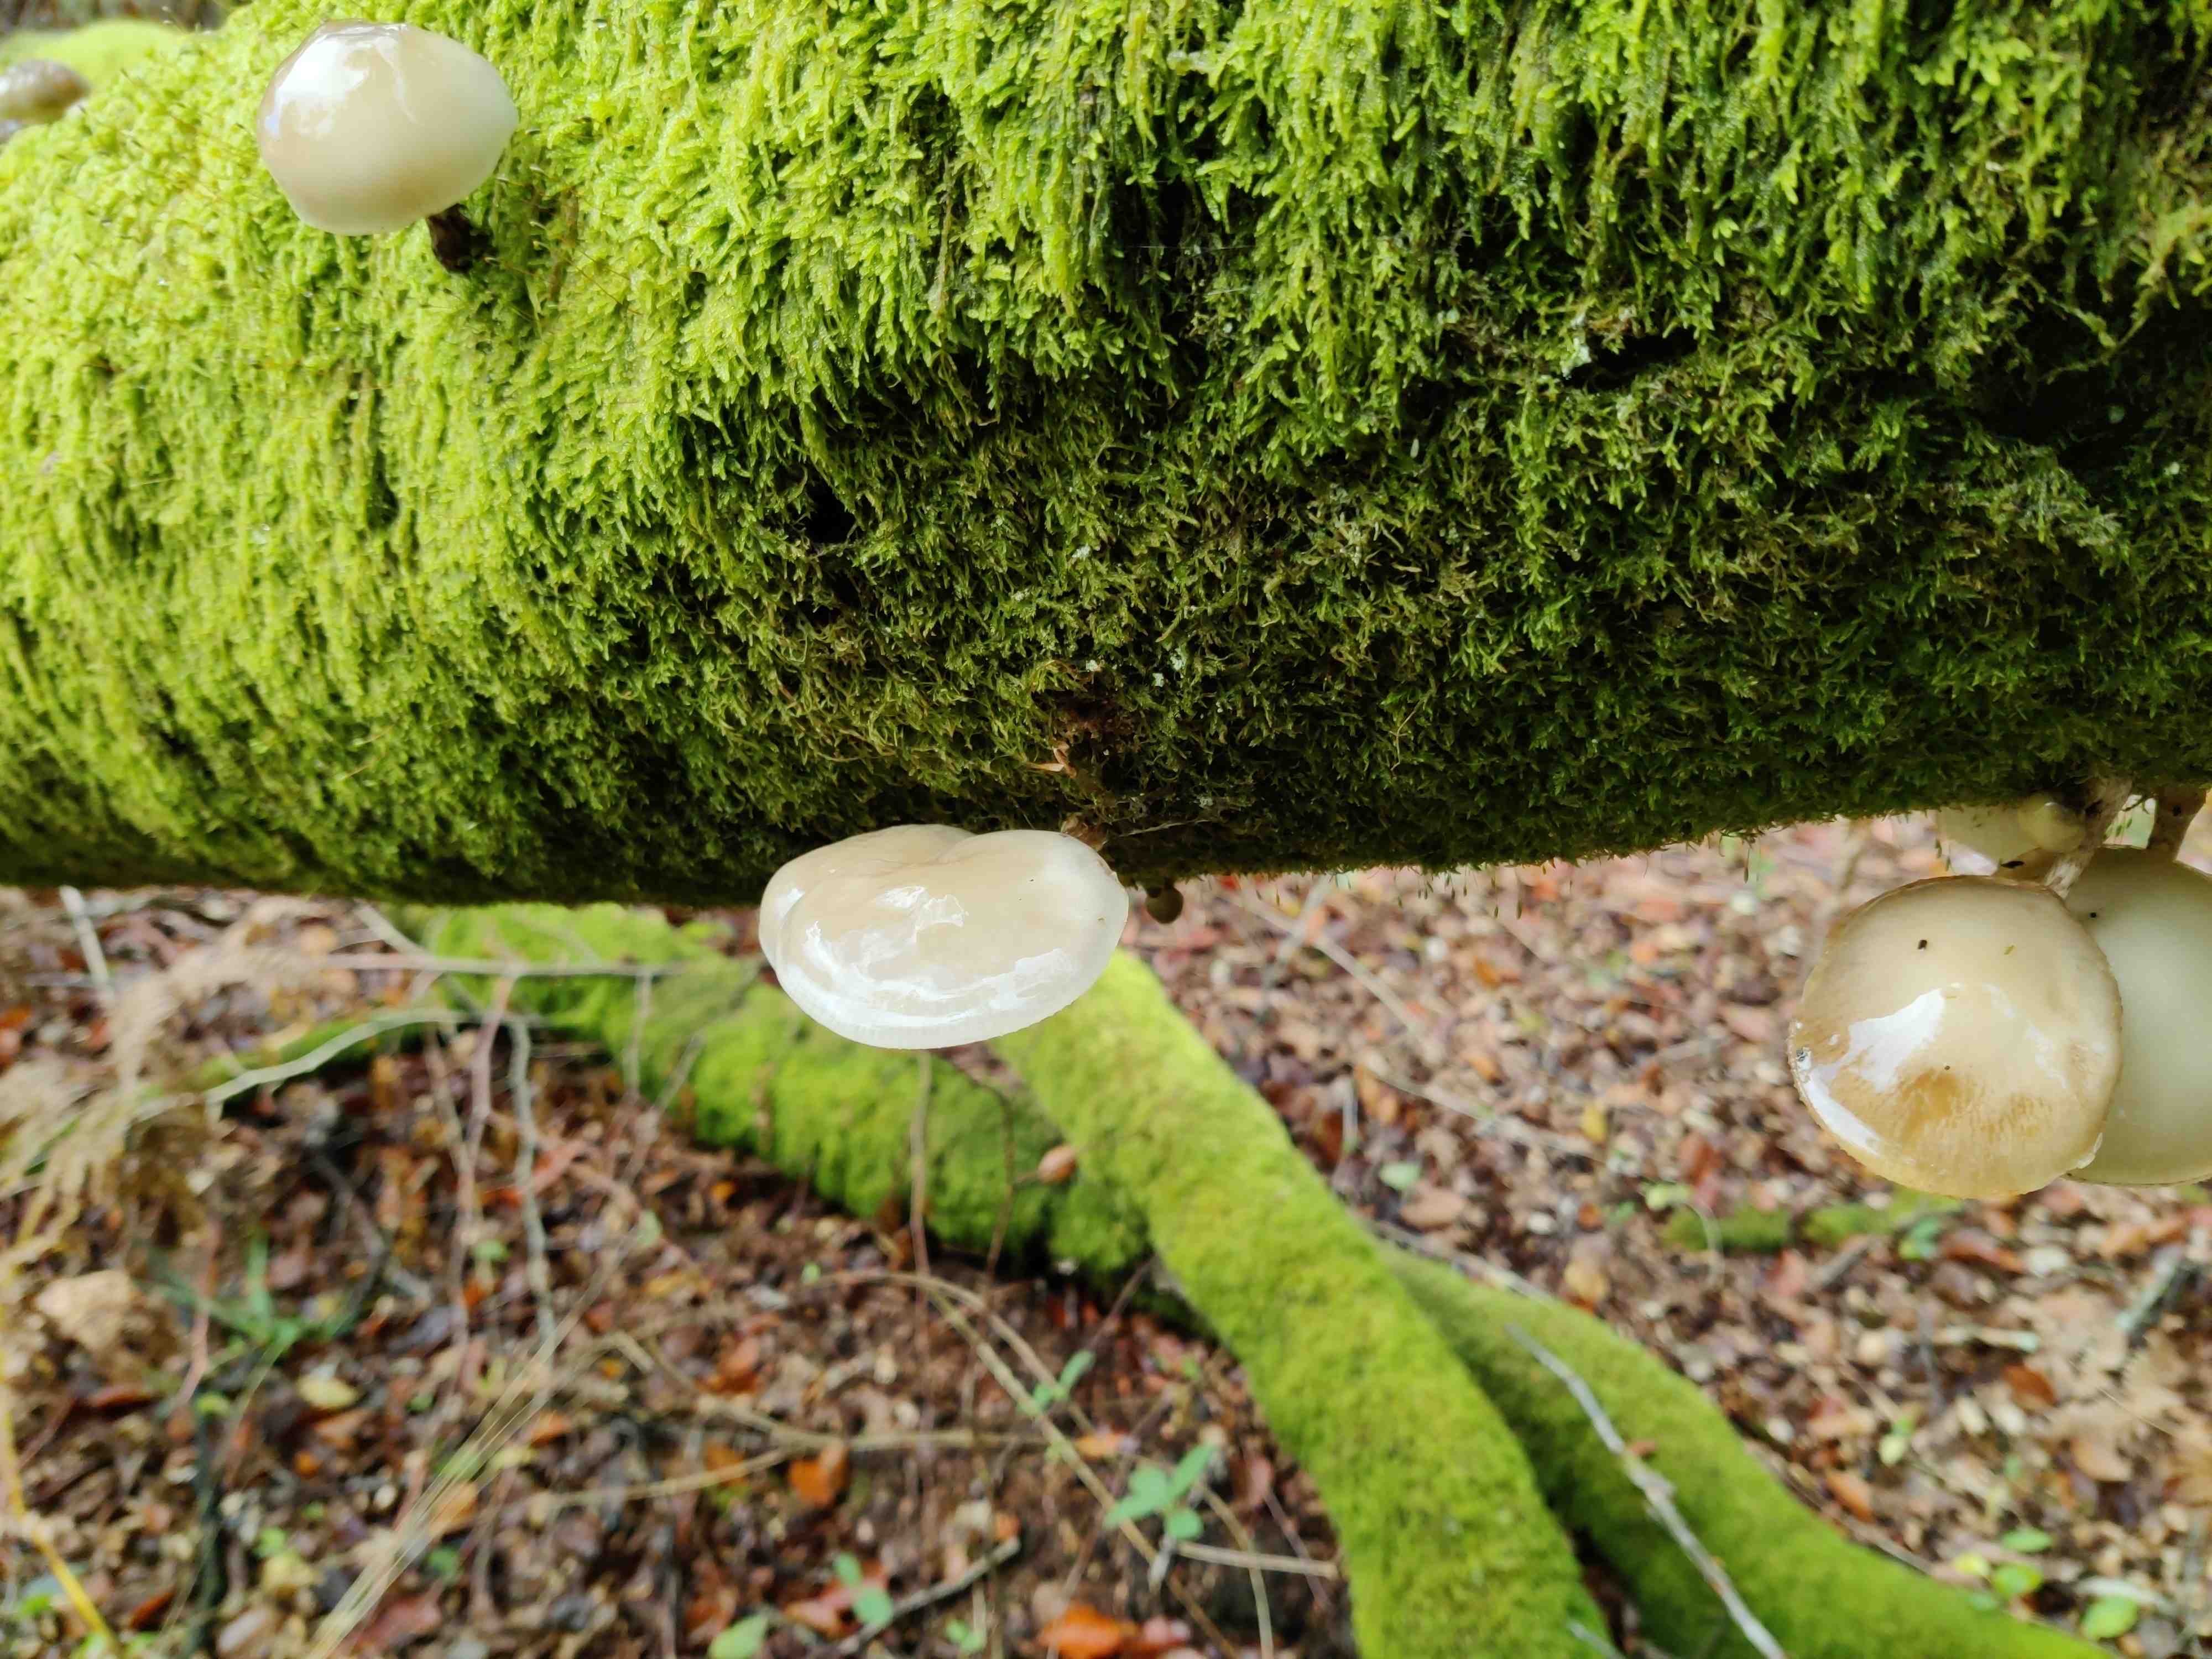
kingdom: Fungi
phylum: Basidiomycota
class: Agaricomycetes
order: Agaricales
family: Physalacriaceae
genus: Mucidula
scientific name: Mucidula mucida
